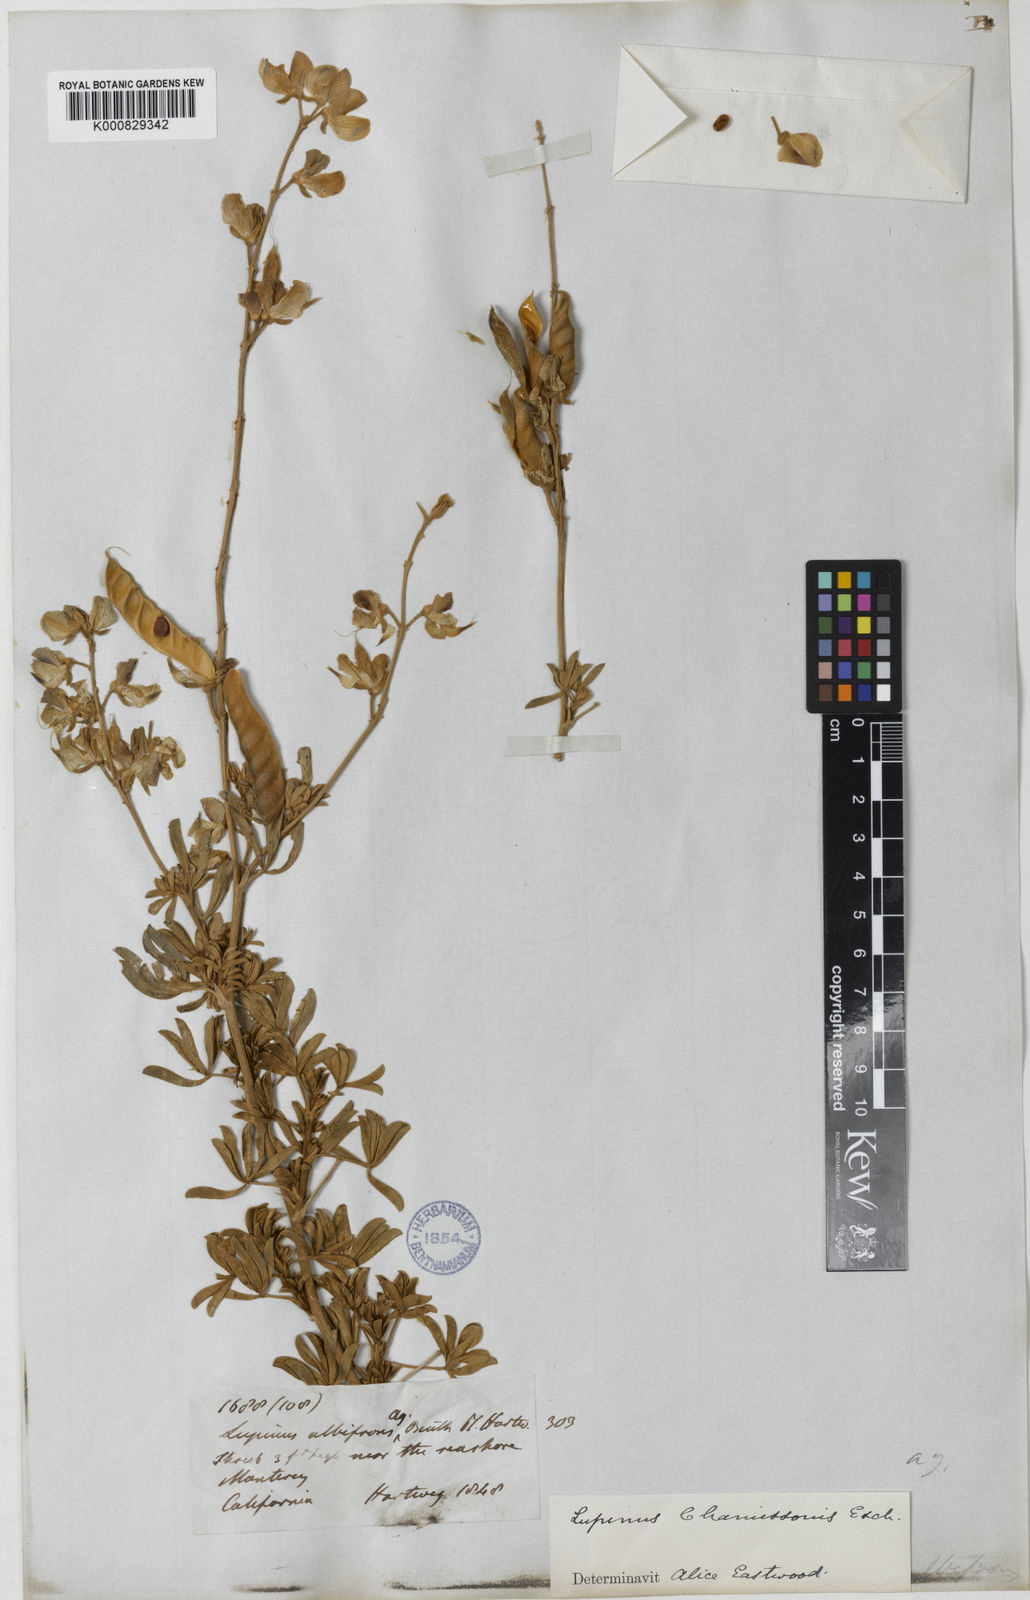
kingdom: Plantae
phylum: Tracheophyta
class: Magnoliopsida
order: Fabales
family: Fabaceae
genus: Lupinus
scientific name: Lupinus chamissonis
